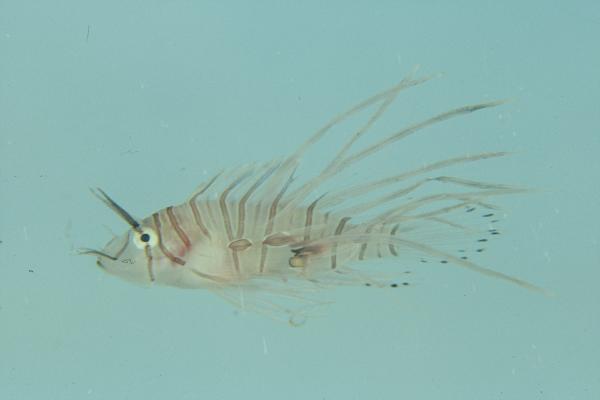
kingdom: Animalia
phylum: Chordata
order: Scorpaeniformes
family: Scorpaenidae
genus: Pterois
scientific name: Pterois miles
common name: Devil firefish
